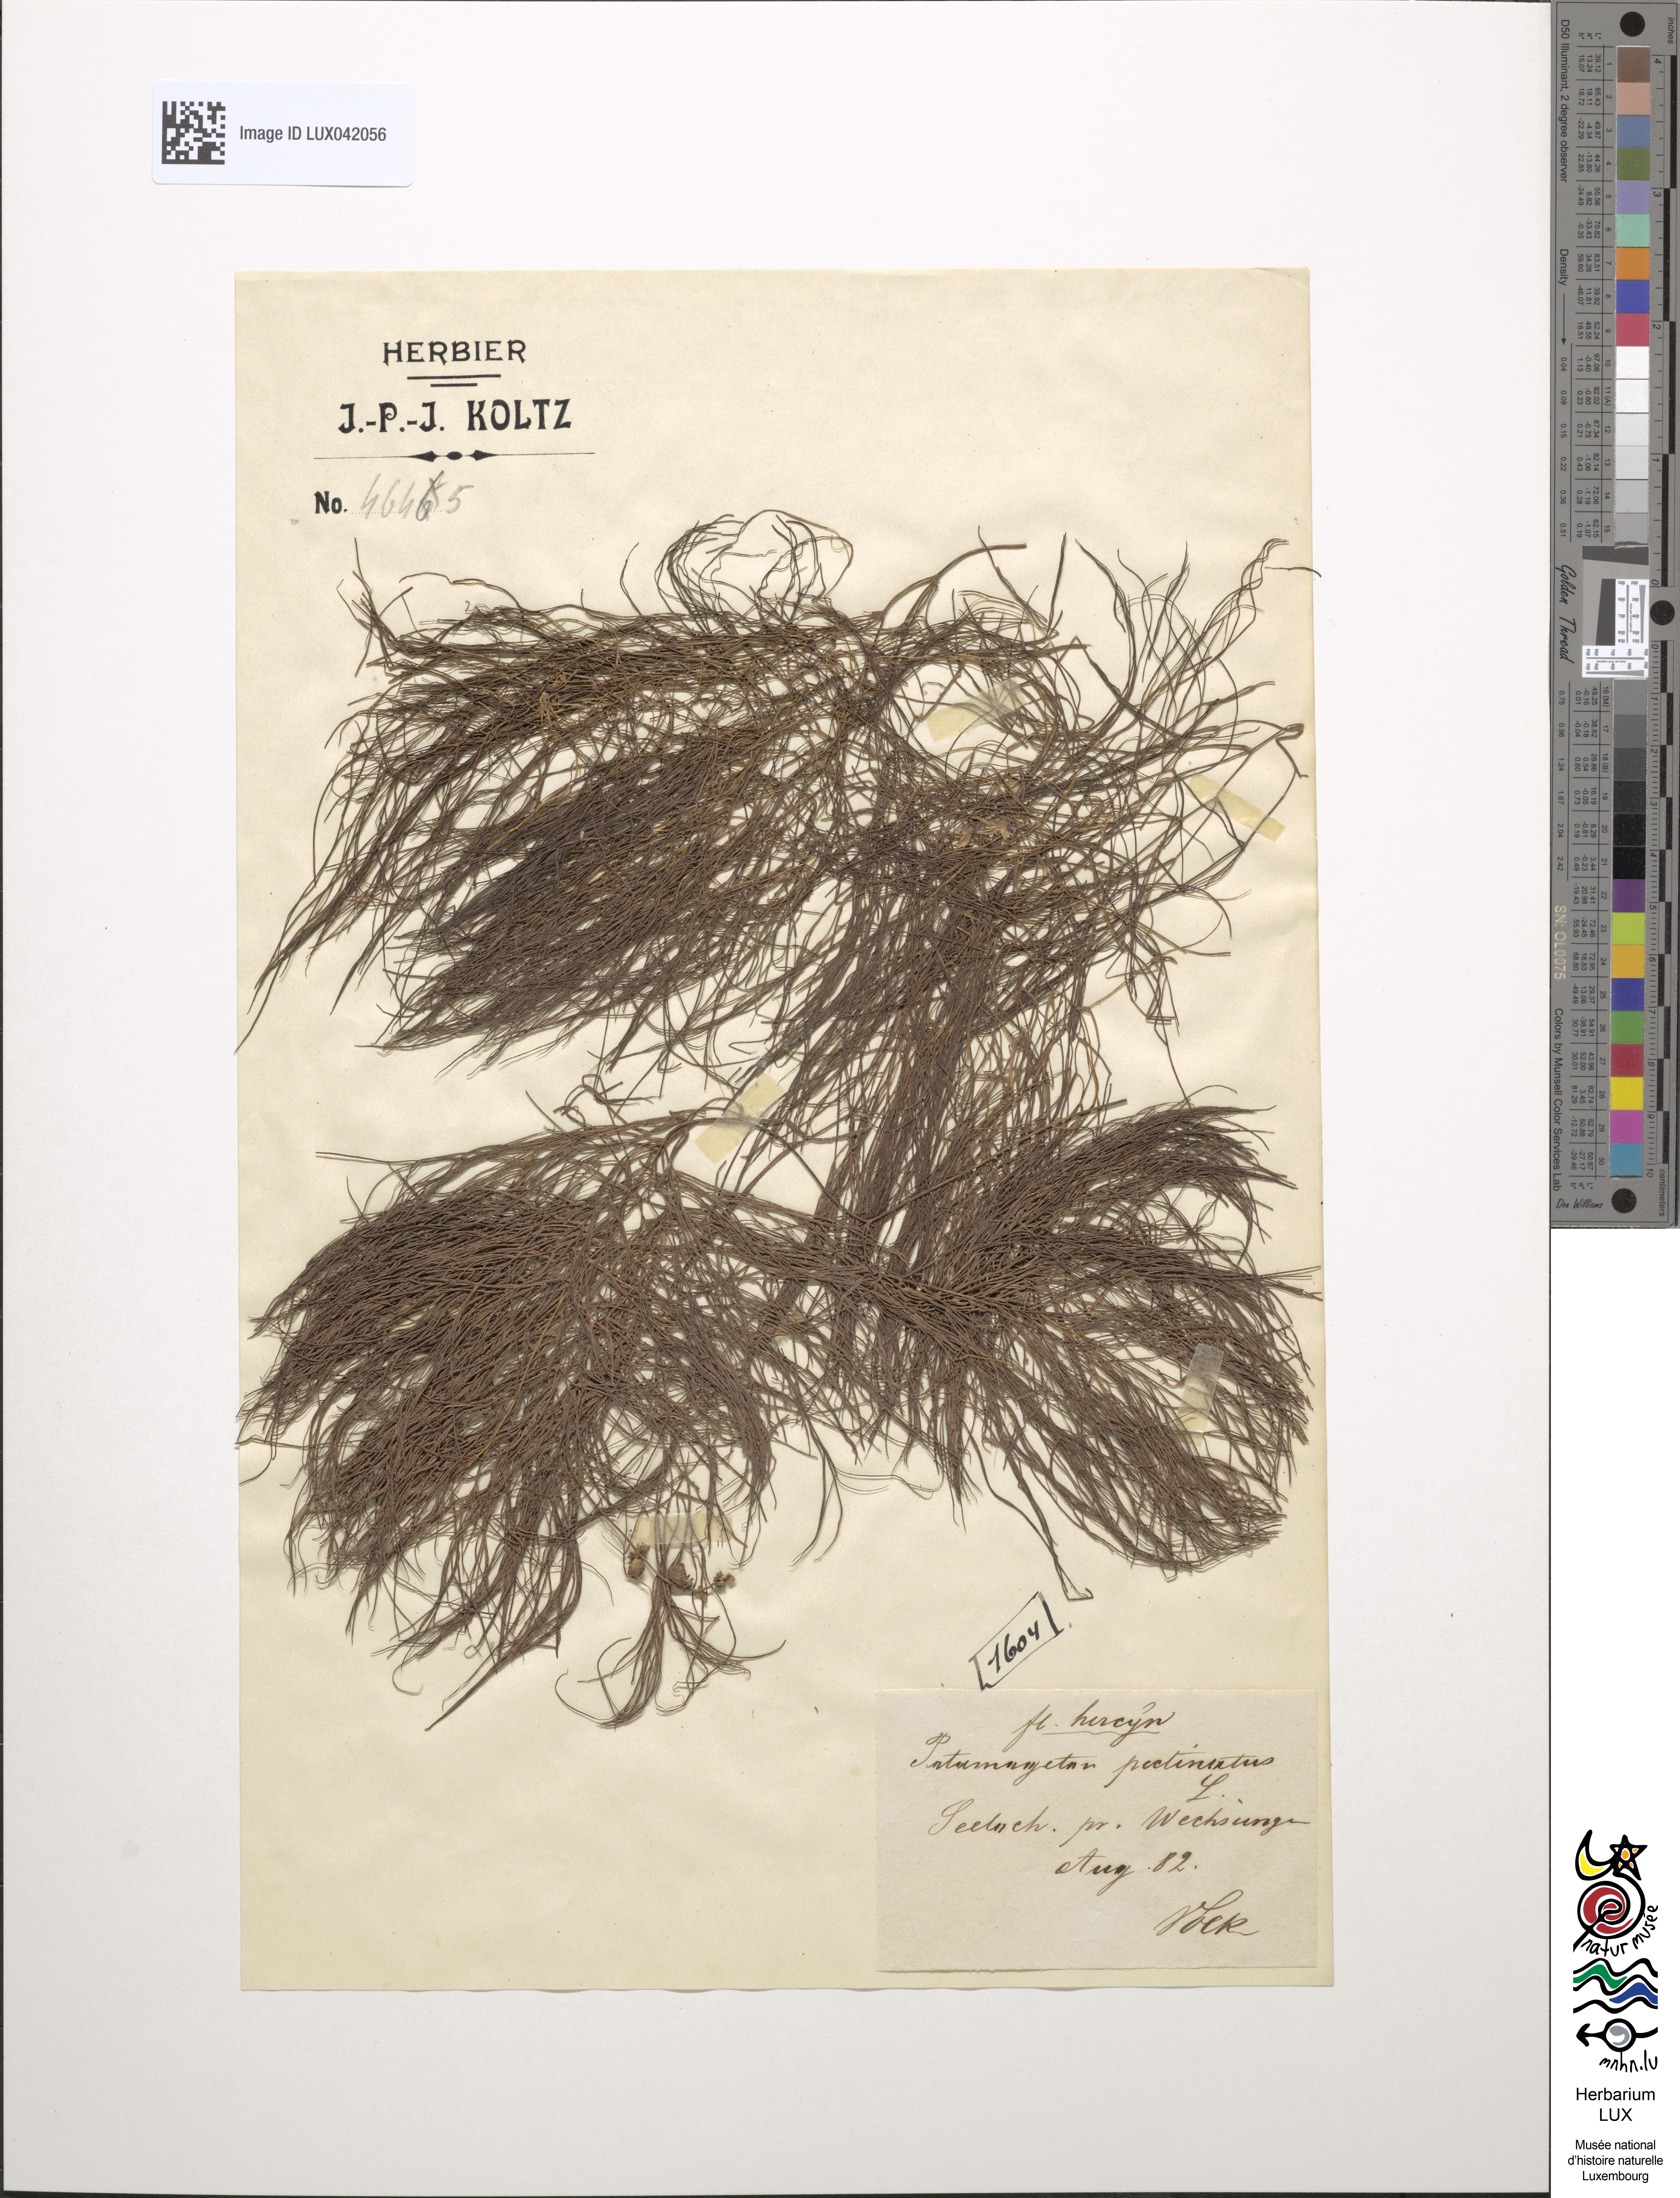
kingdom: Plantae
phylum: Tracheophyta
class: Liliopsida
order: Alismatales
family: Potamogetonaceae
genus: Stuckenia
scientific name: Stuckenia pectinata
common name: Sago pondweed
